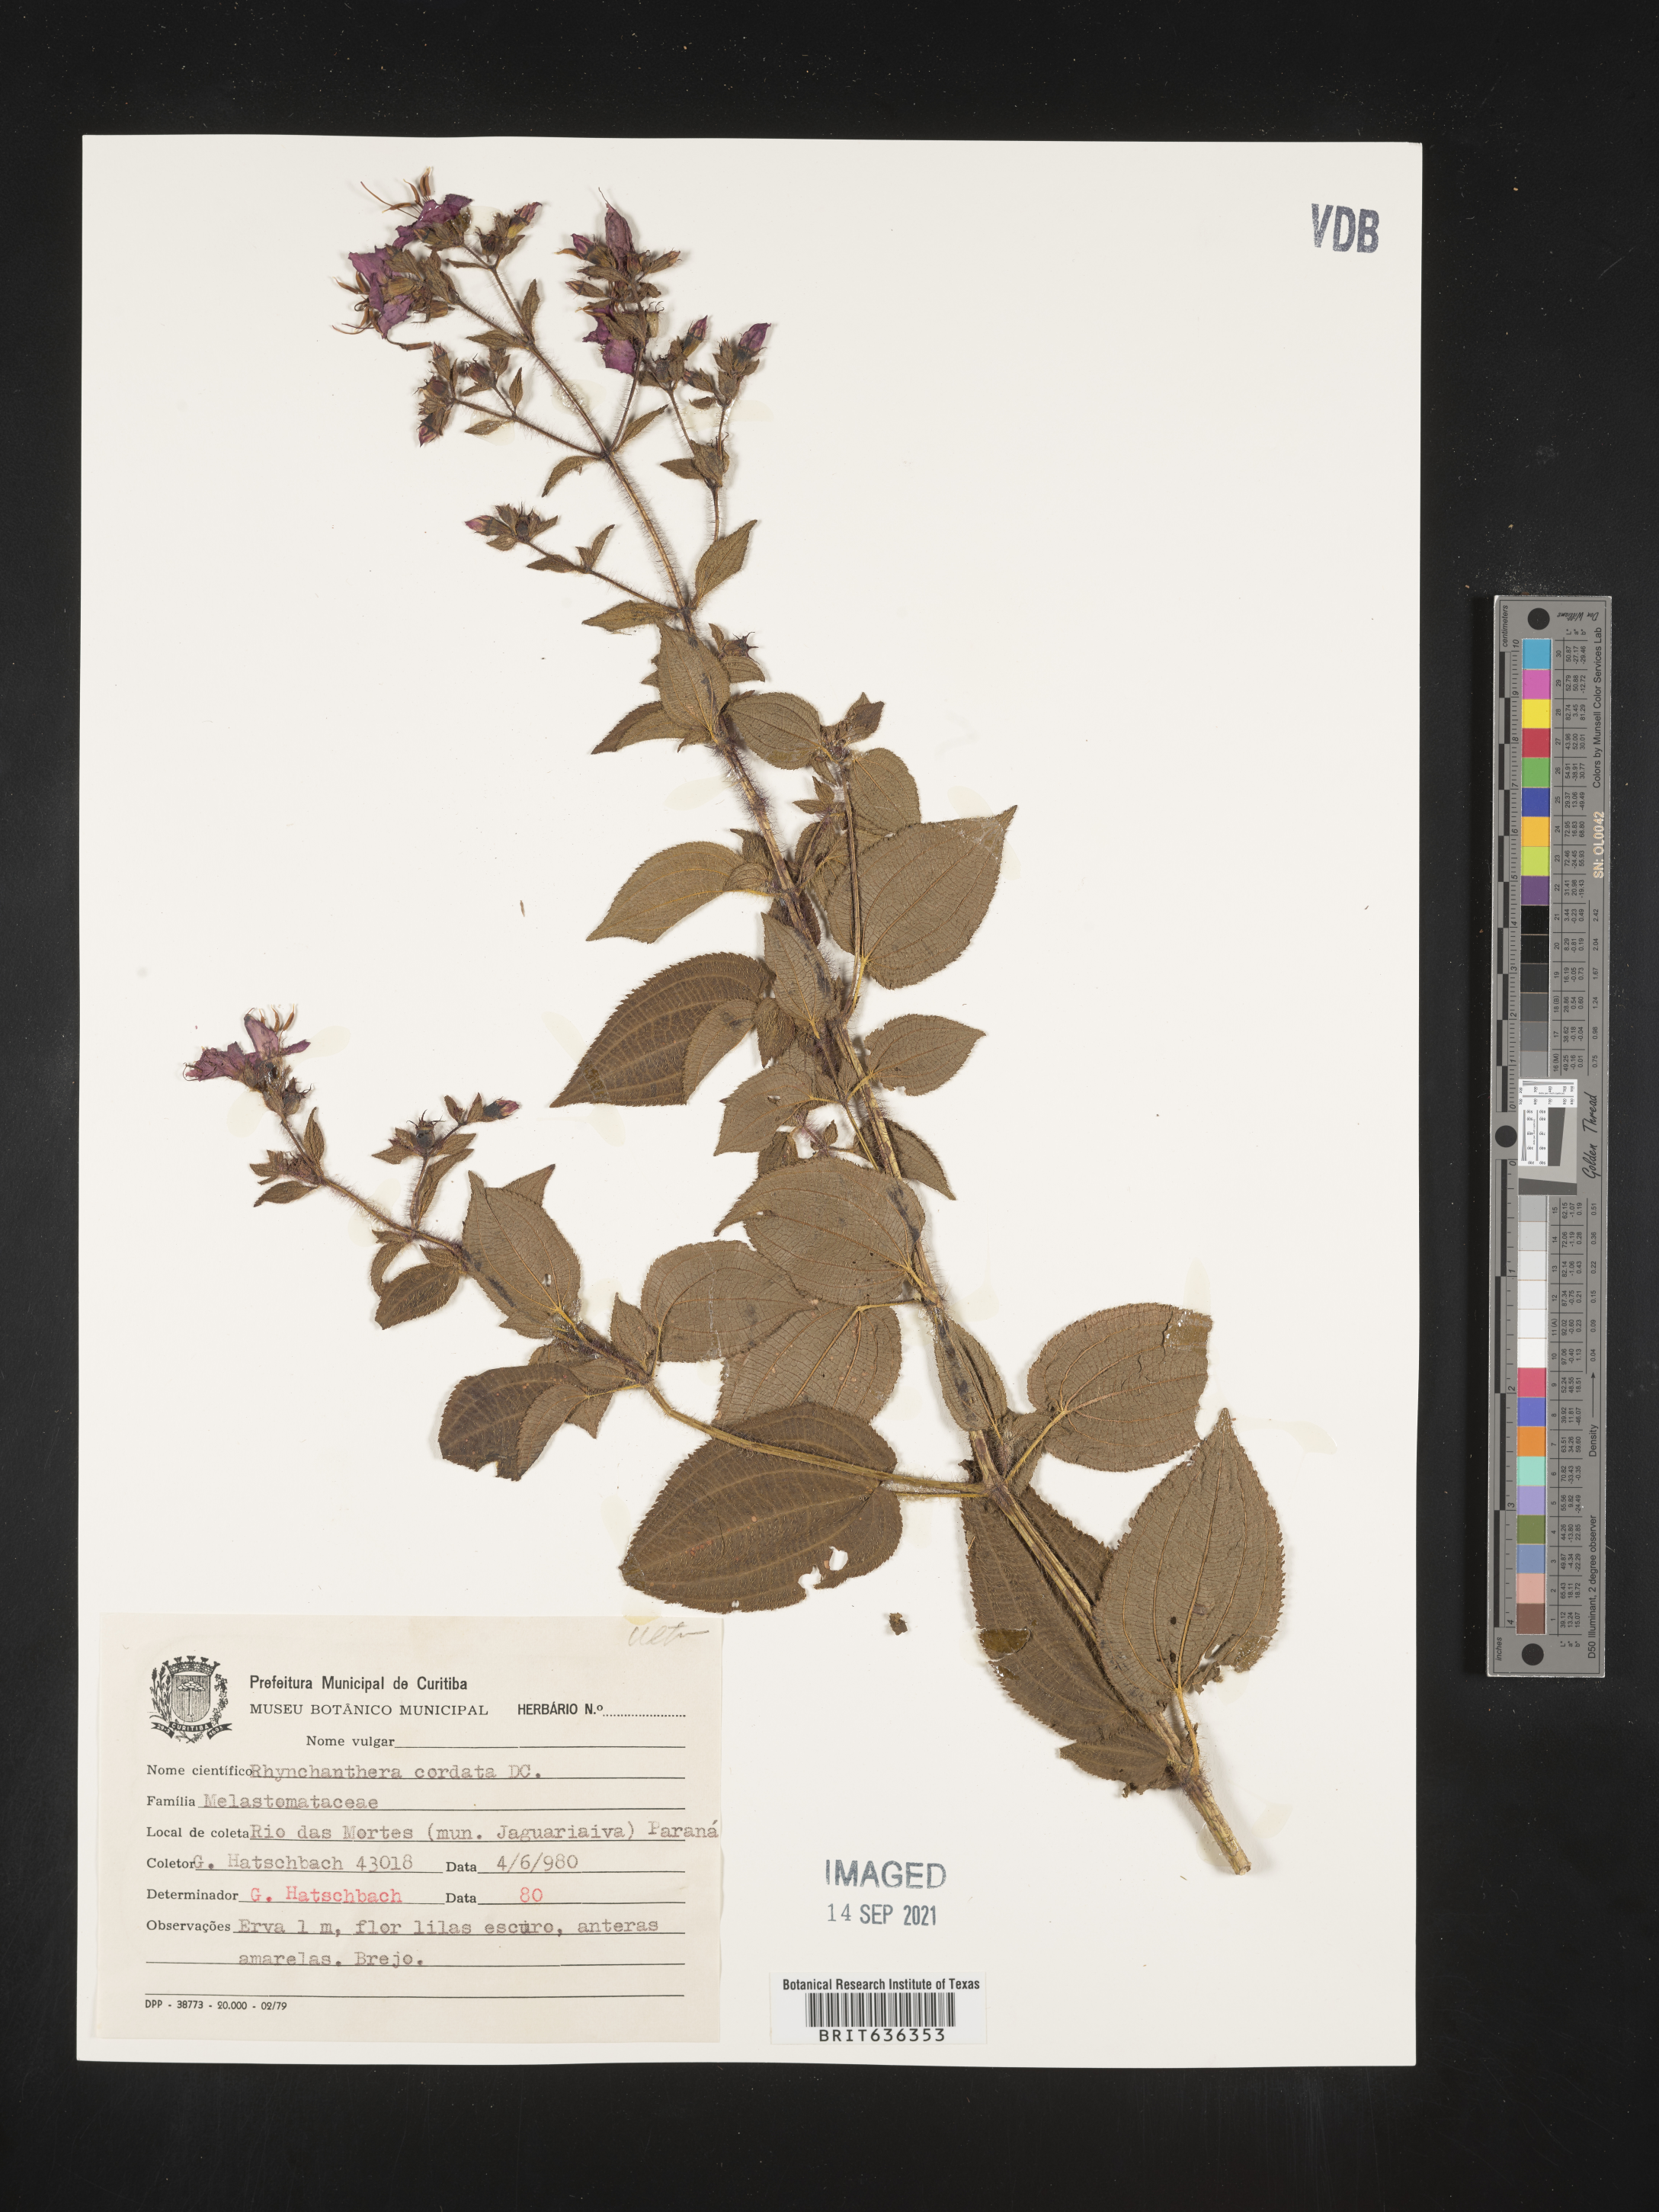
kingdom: Plantae
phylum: Tracheophyta
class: Magnoliopsida
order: Myrtales
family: Melastomataceae
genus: Rhynchanthera
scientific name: Rhynchanthera
